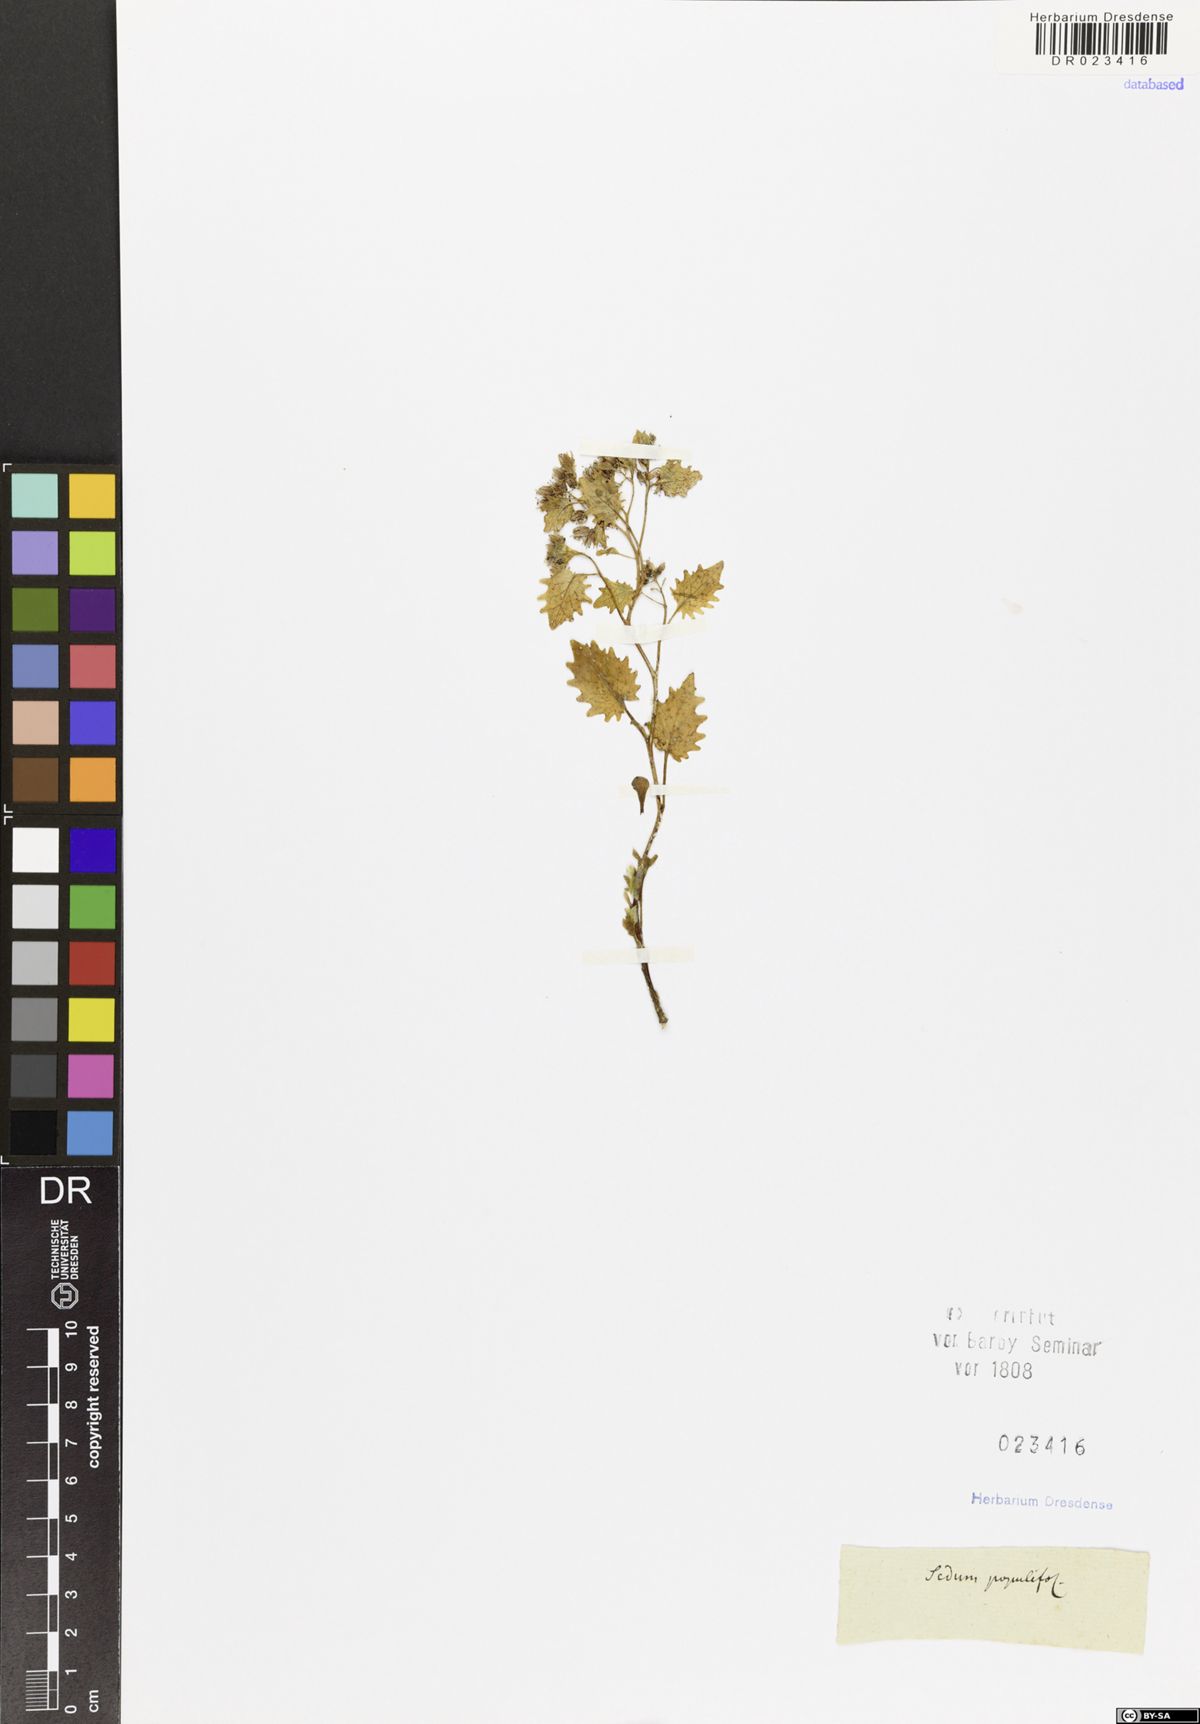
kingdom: Plantae
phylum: Tracheophyta
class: Magnoliopsida
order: Saxifragales
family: Crassulaceae
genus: Hylotelephium
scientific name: Hylotelephium populifolium
